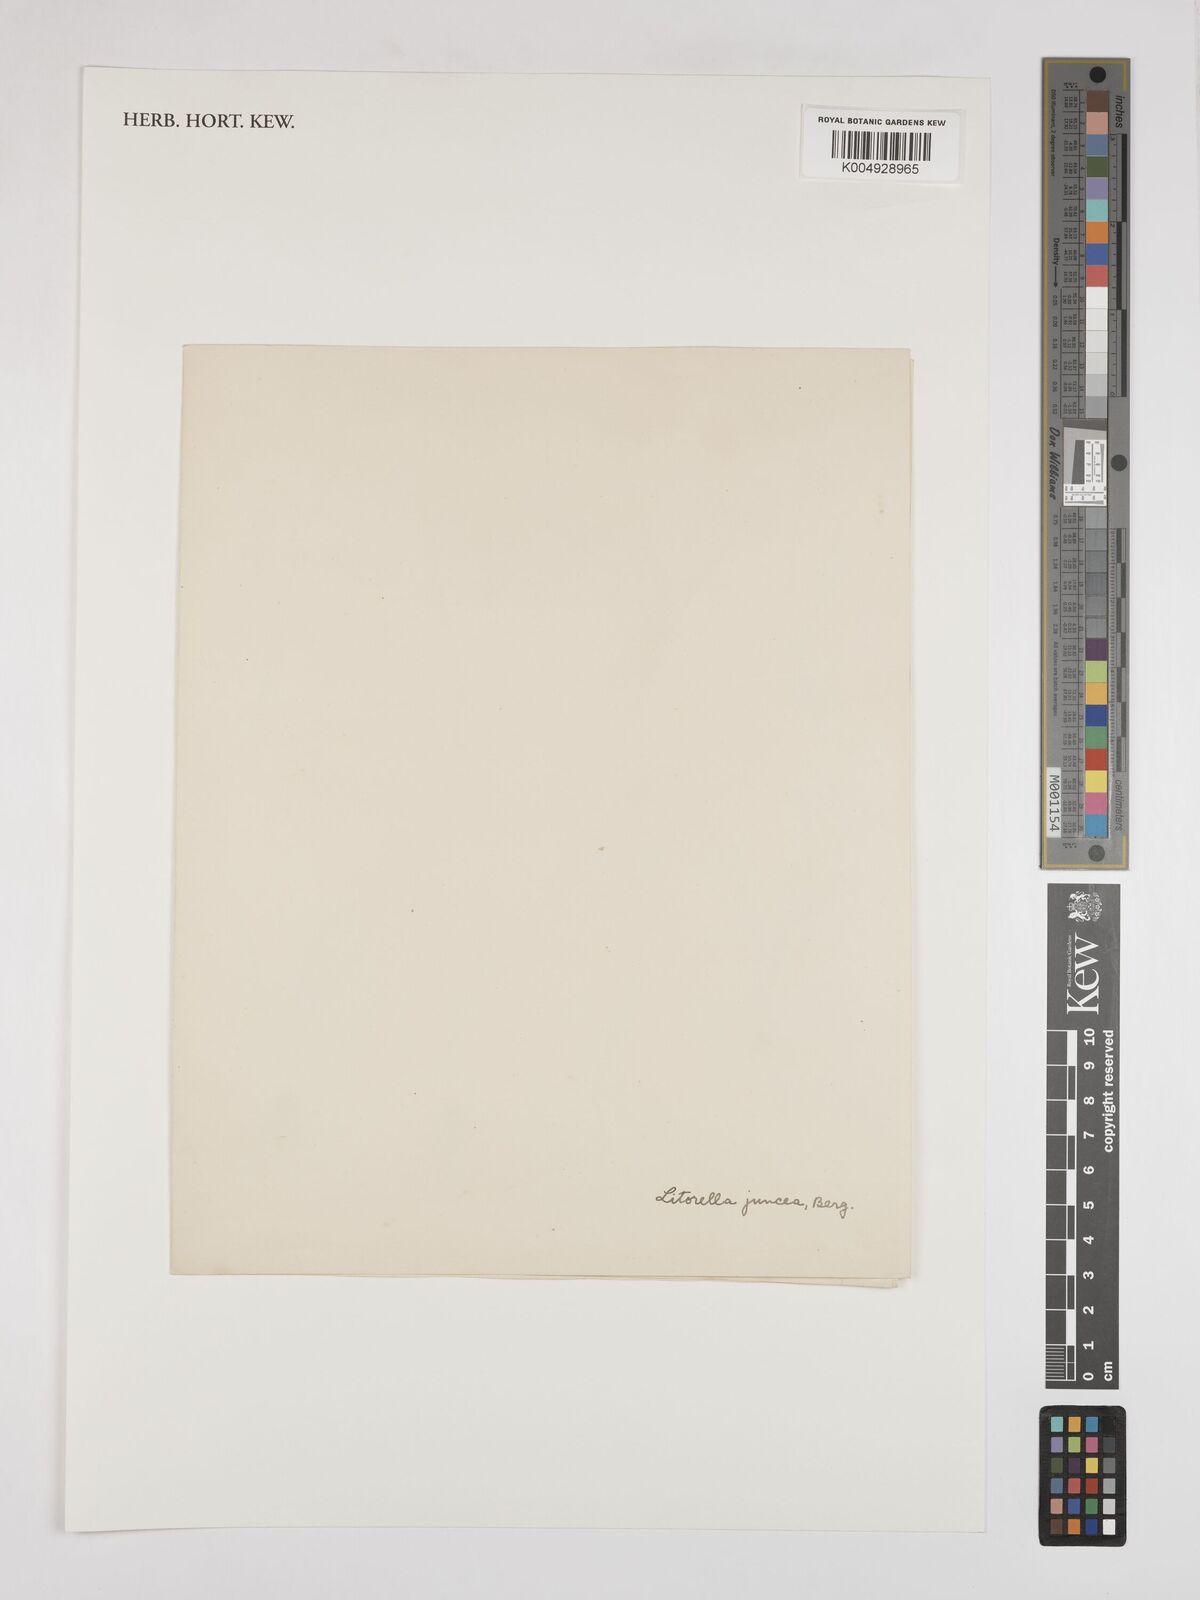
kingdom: Plantae
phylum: Tracheophyta
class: Magnoliopsida
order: Lamiales
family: Plantaginaceae
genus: Littorella
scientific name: Littorella uniflora
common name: Shoreweed
